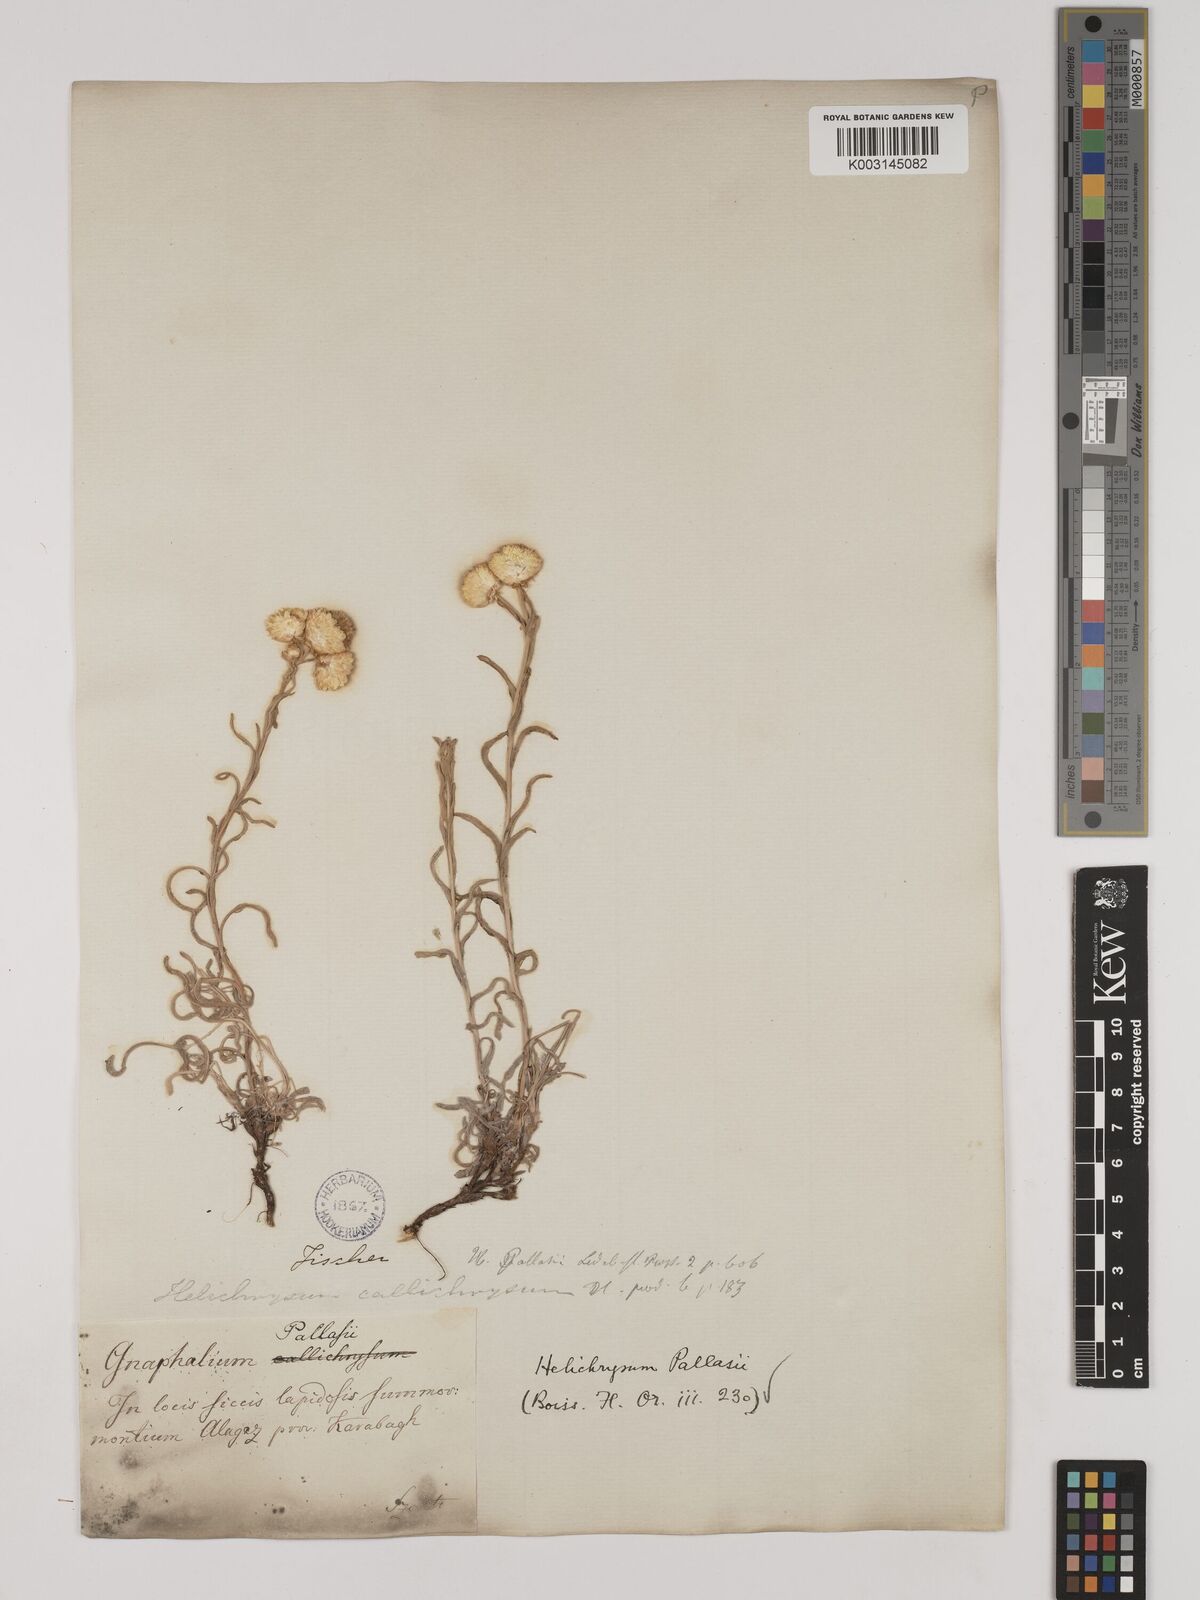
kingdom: Plantae
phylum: Tracheophyta
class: Magnoliopsida
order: Asterales
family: Asteraceae
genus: Helichrysum
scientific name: Helichrysum pallasii
